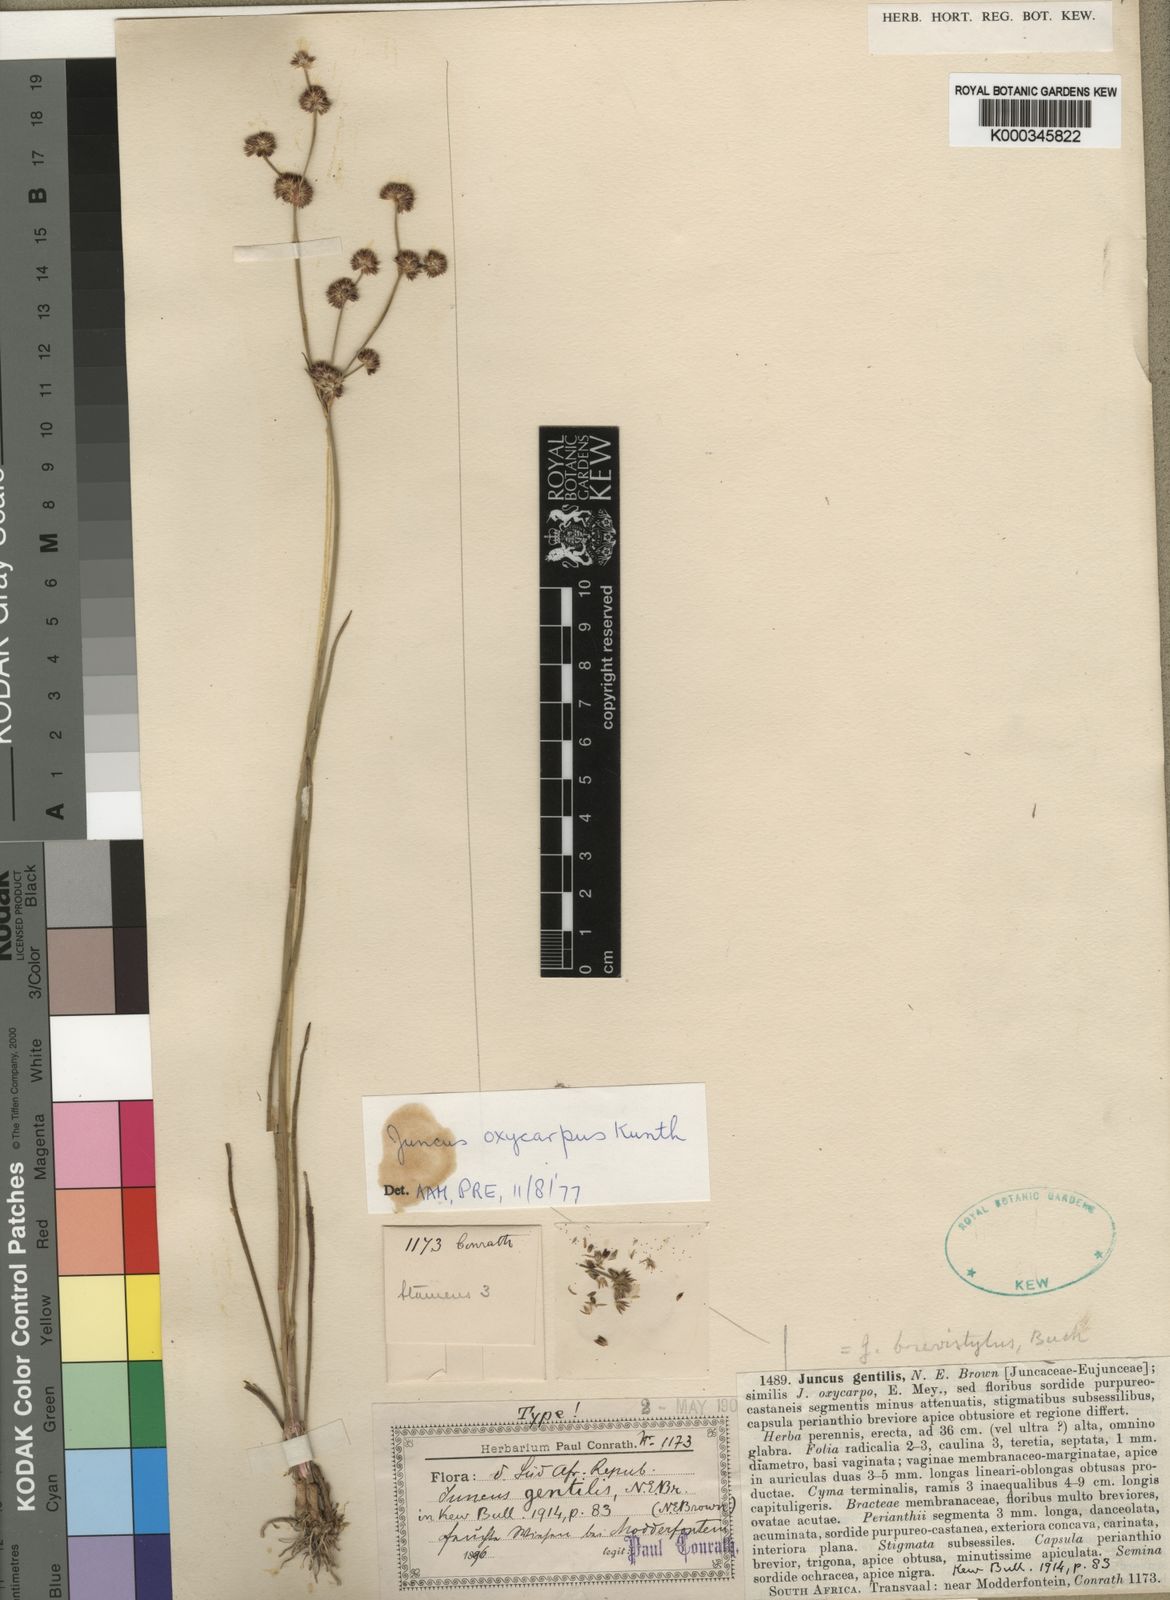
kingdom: Plantae
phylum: Tracheophyta
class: Liliopsida
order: Poales
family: Juncaceae
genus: Juncus
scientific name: Juncus oxycarpus
